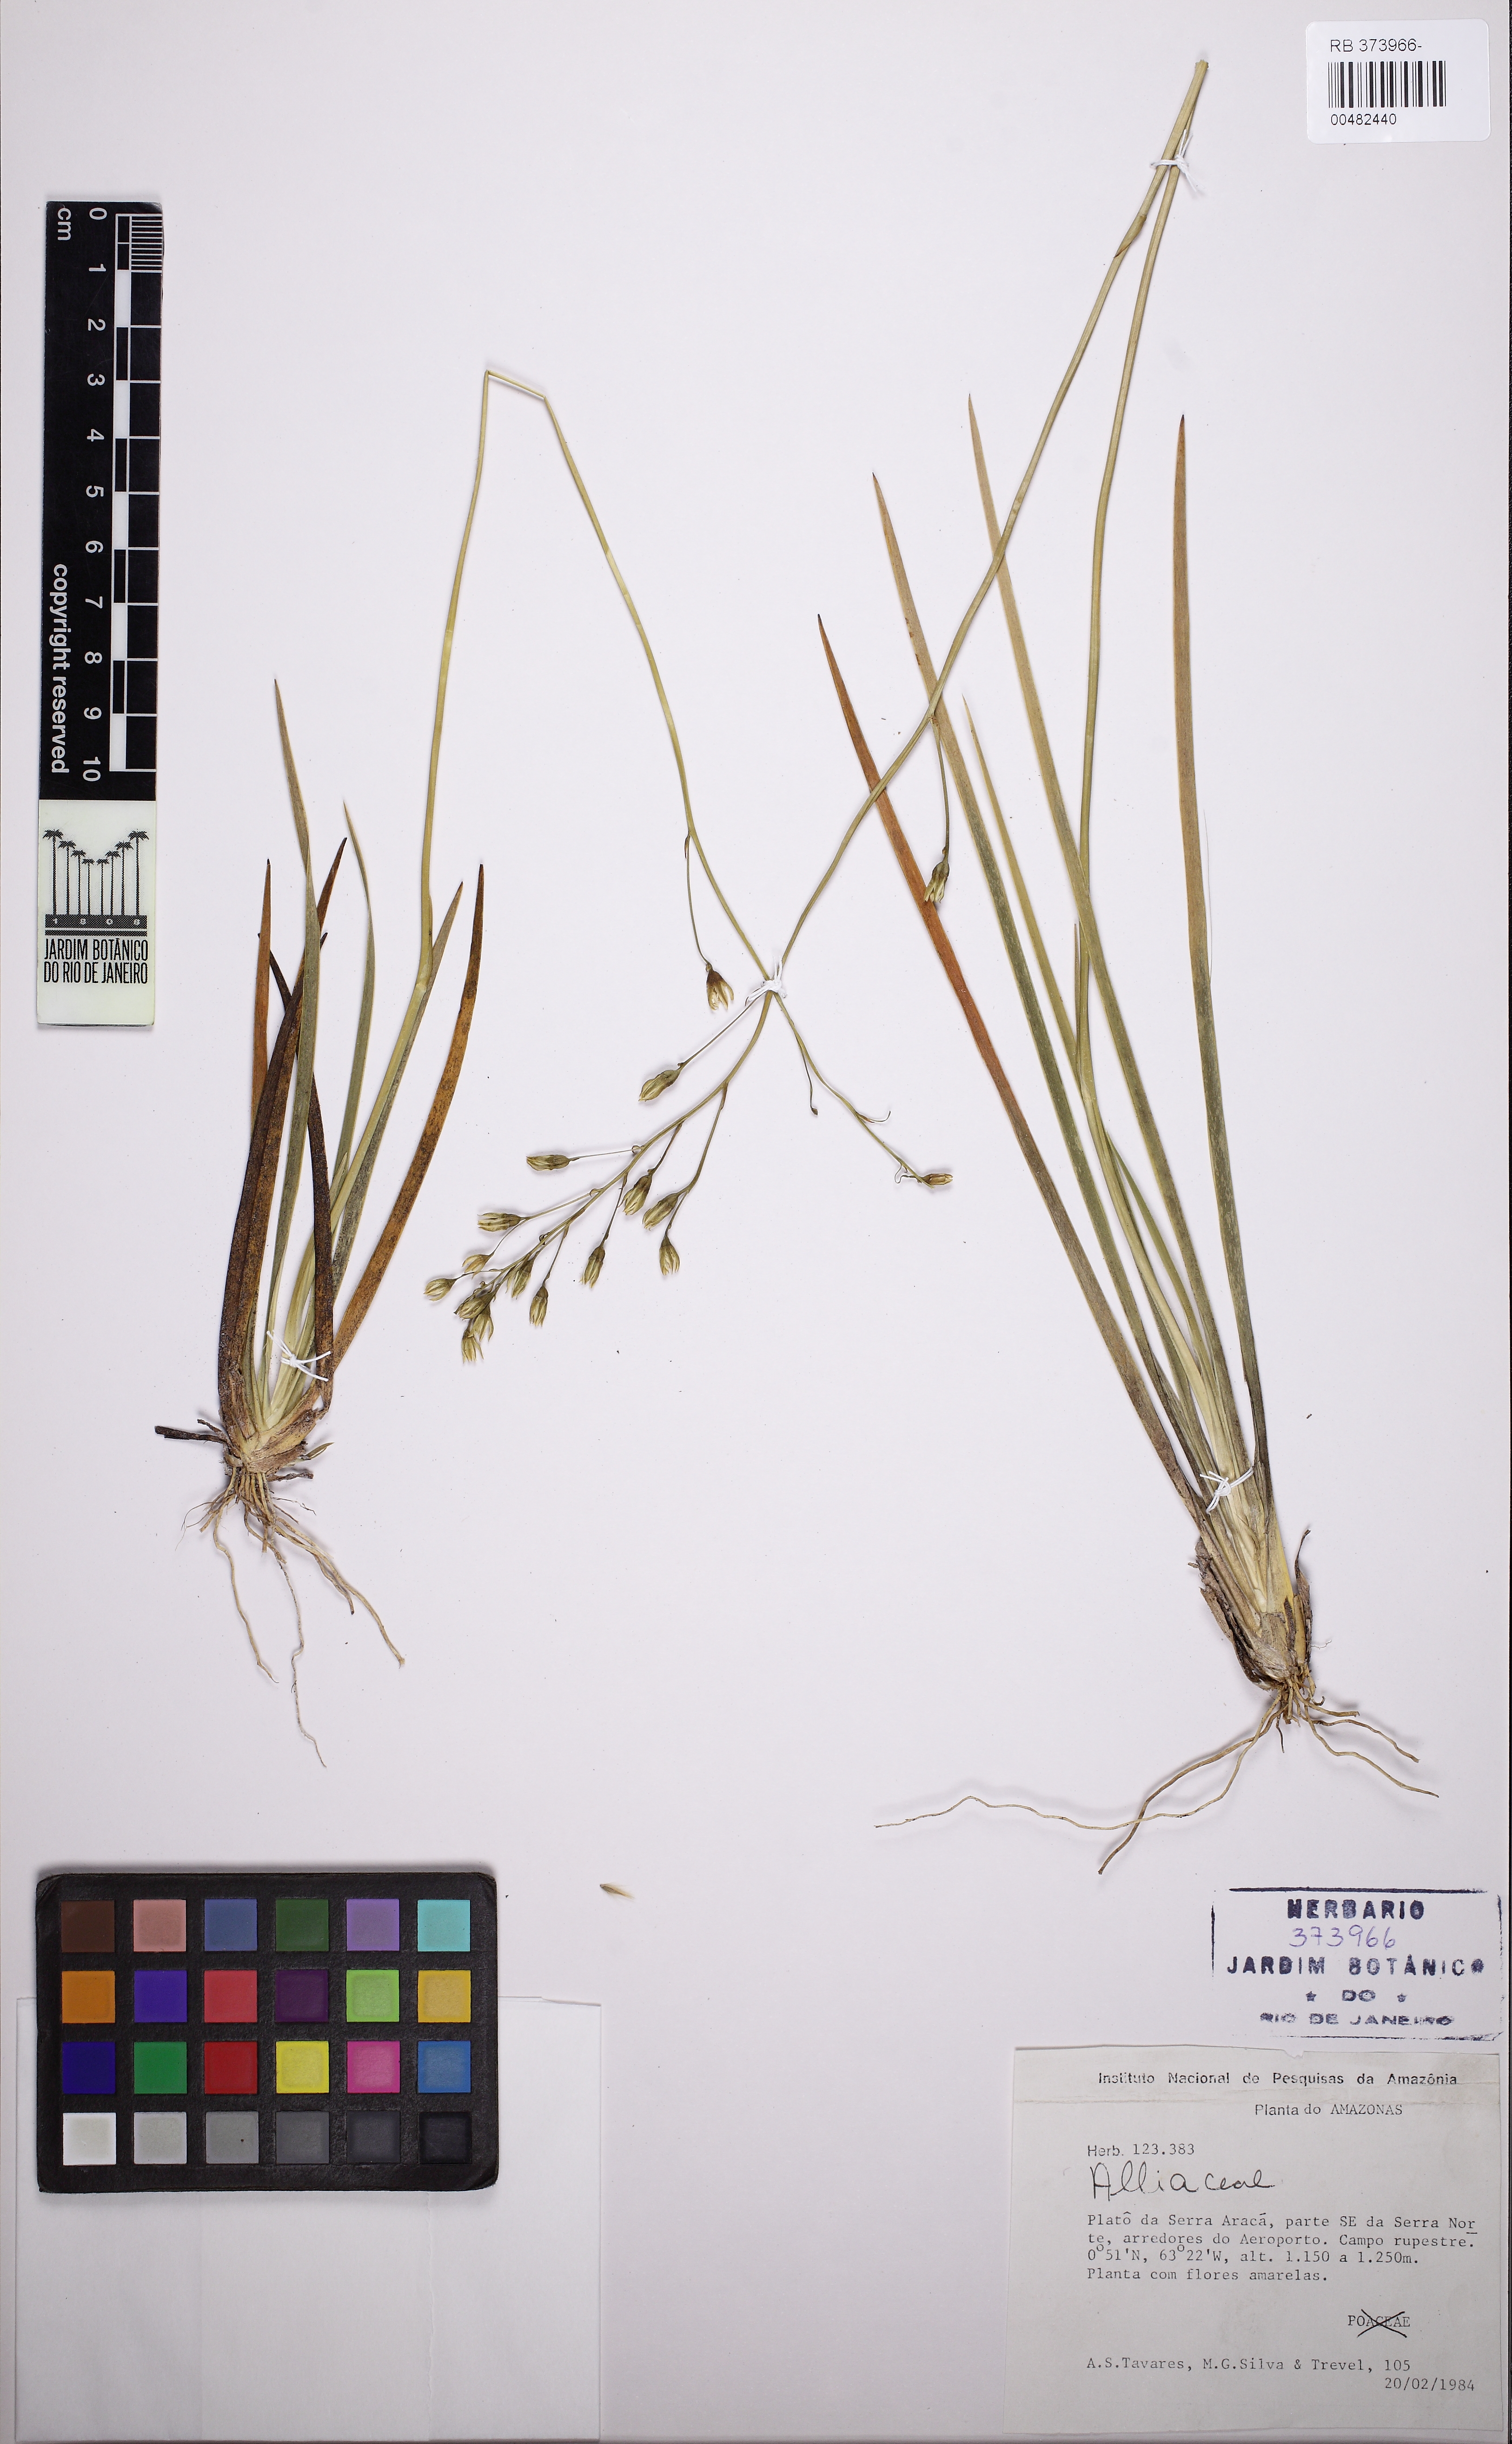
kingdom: Plantae
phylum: Tracheophyta
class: Liliopsida
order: Asparagales
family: Amaryllidaceae
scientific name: Amaryllidaceae
